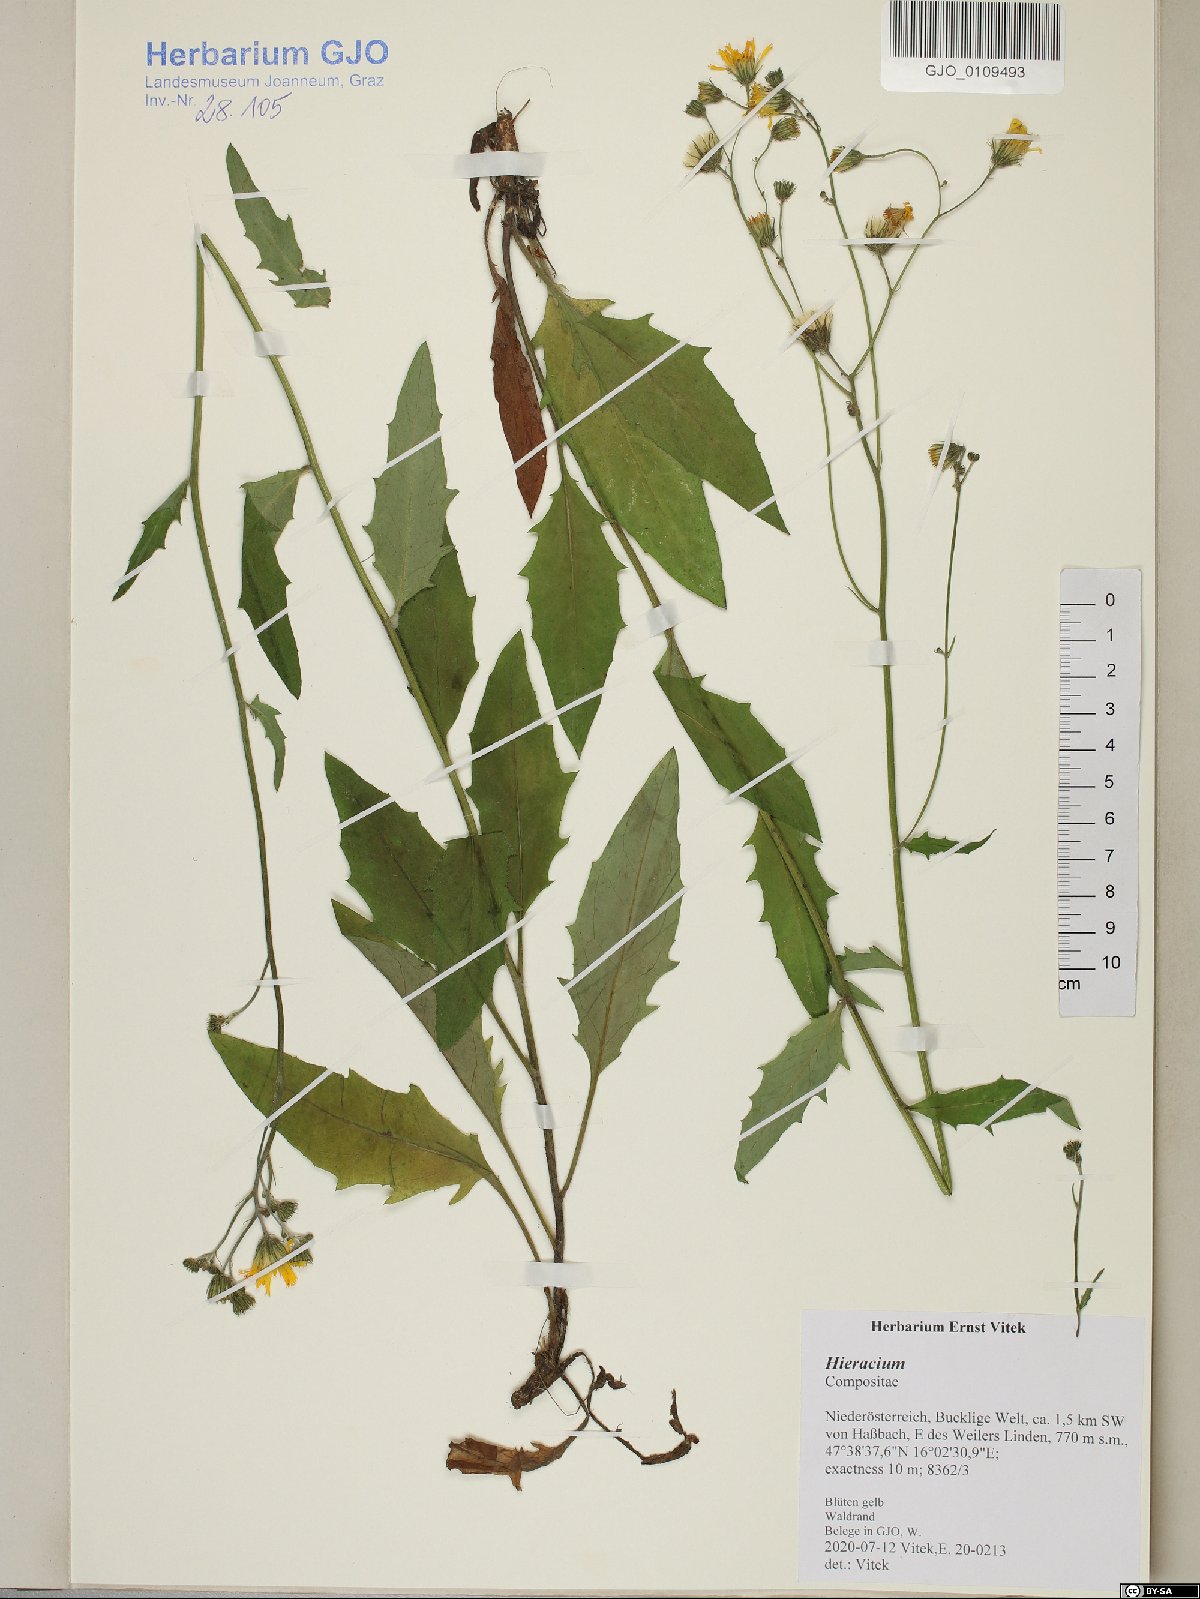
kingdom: Plantae
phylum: Tracheophyta
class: Magnoliopsida
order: Asterales
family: Asteraceae
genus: Hieracium
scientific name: Hieracium
